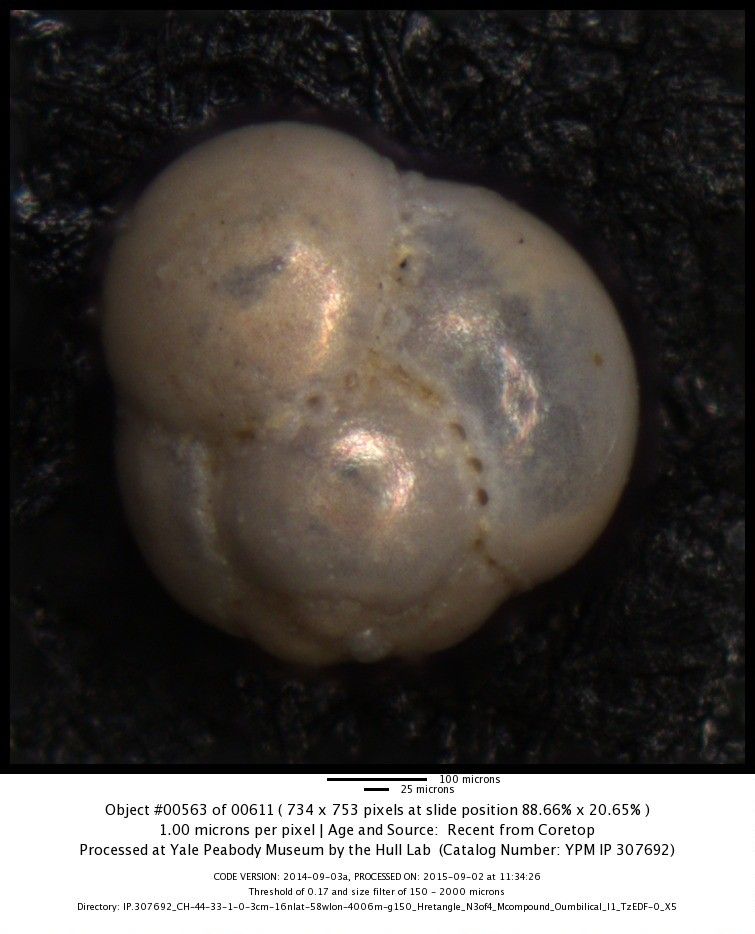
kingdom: Chromista
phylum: Foraminifera
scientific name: Foraminifera
